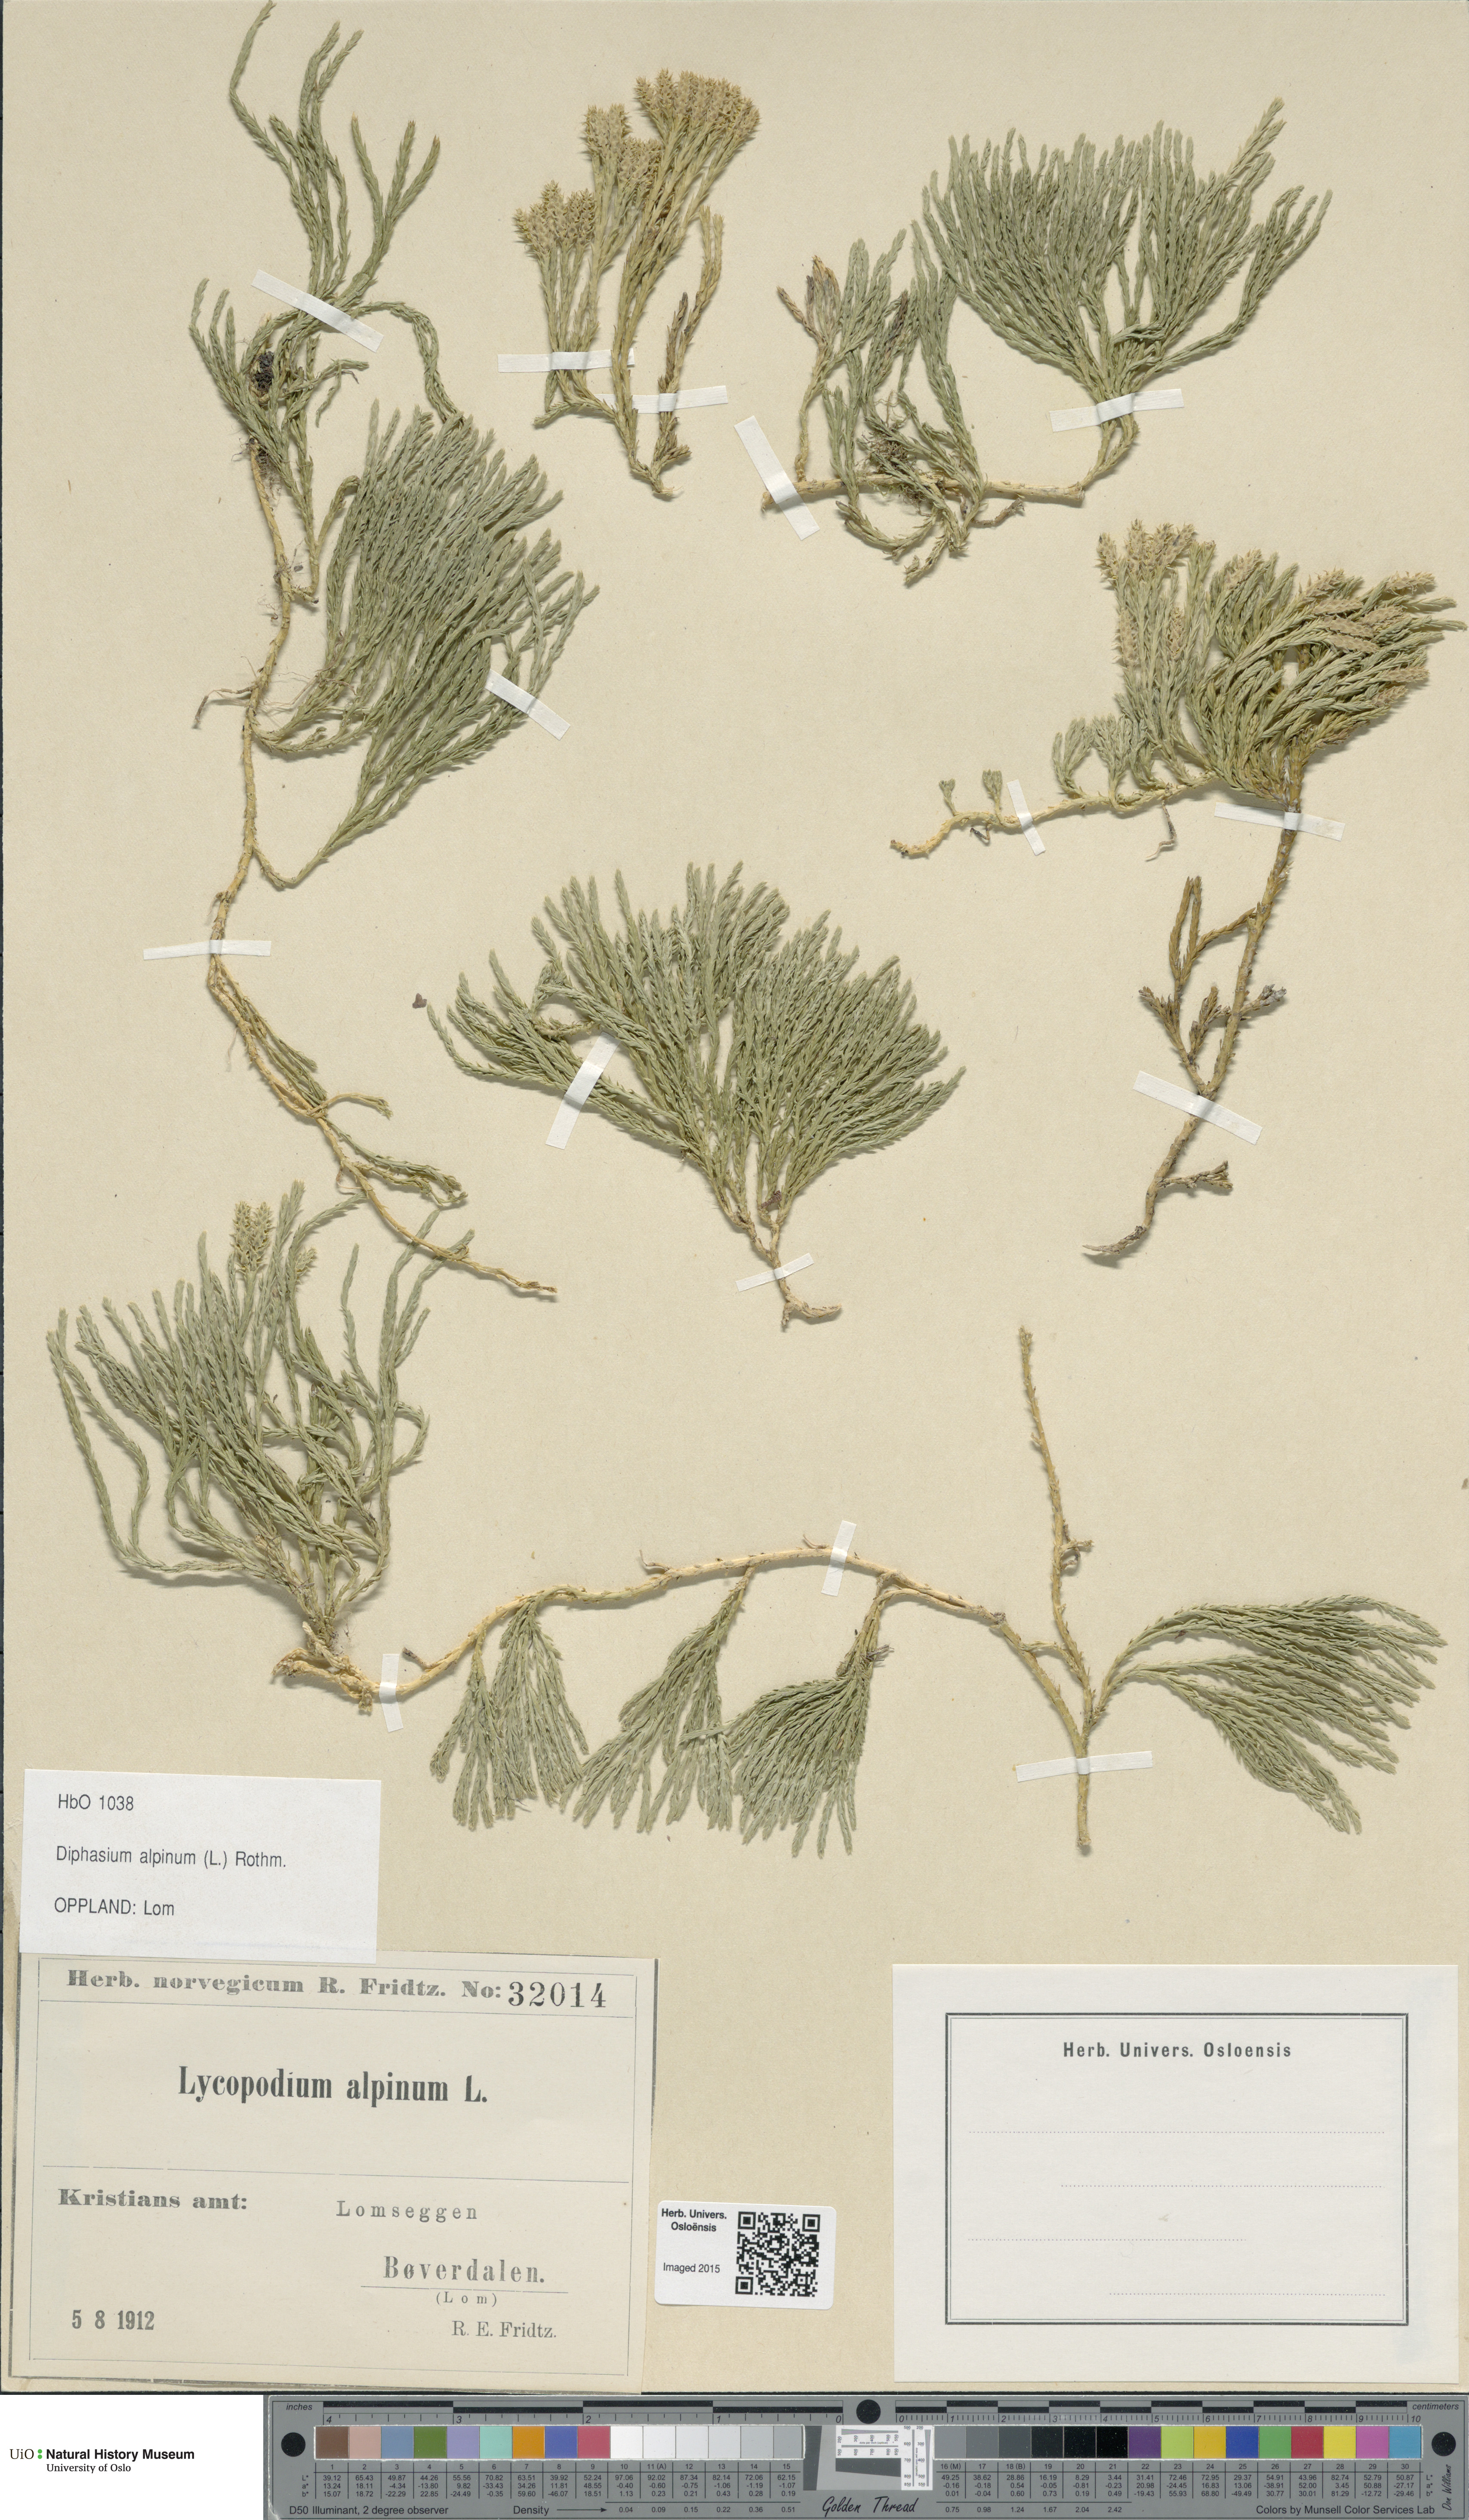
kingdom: Plantae
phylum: Tracheophyta
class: Lycopodiopsida
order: Lycopodiales
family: Lycopodiaceae
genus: Diphasiastrum
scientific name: Diphasiastrum alpinum
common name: Alpine clubmoss
